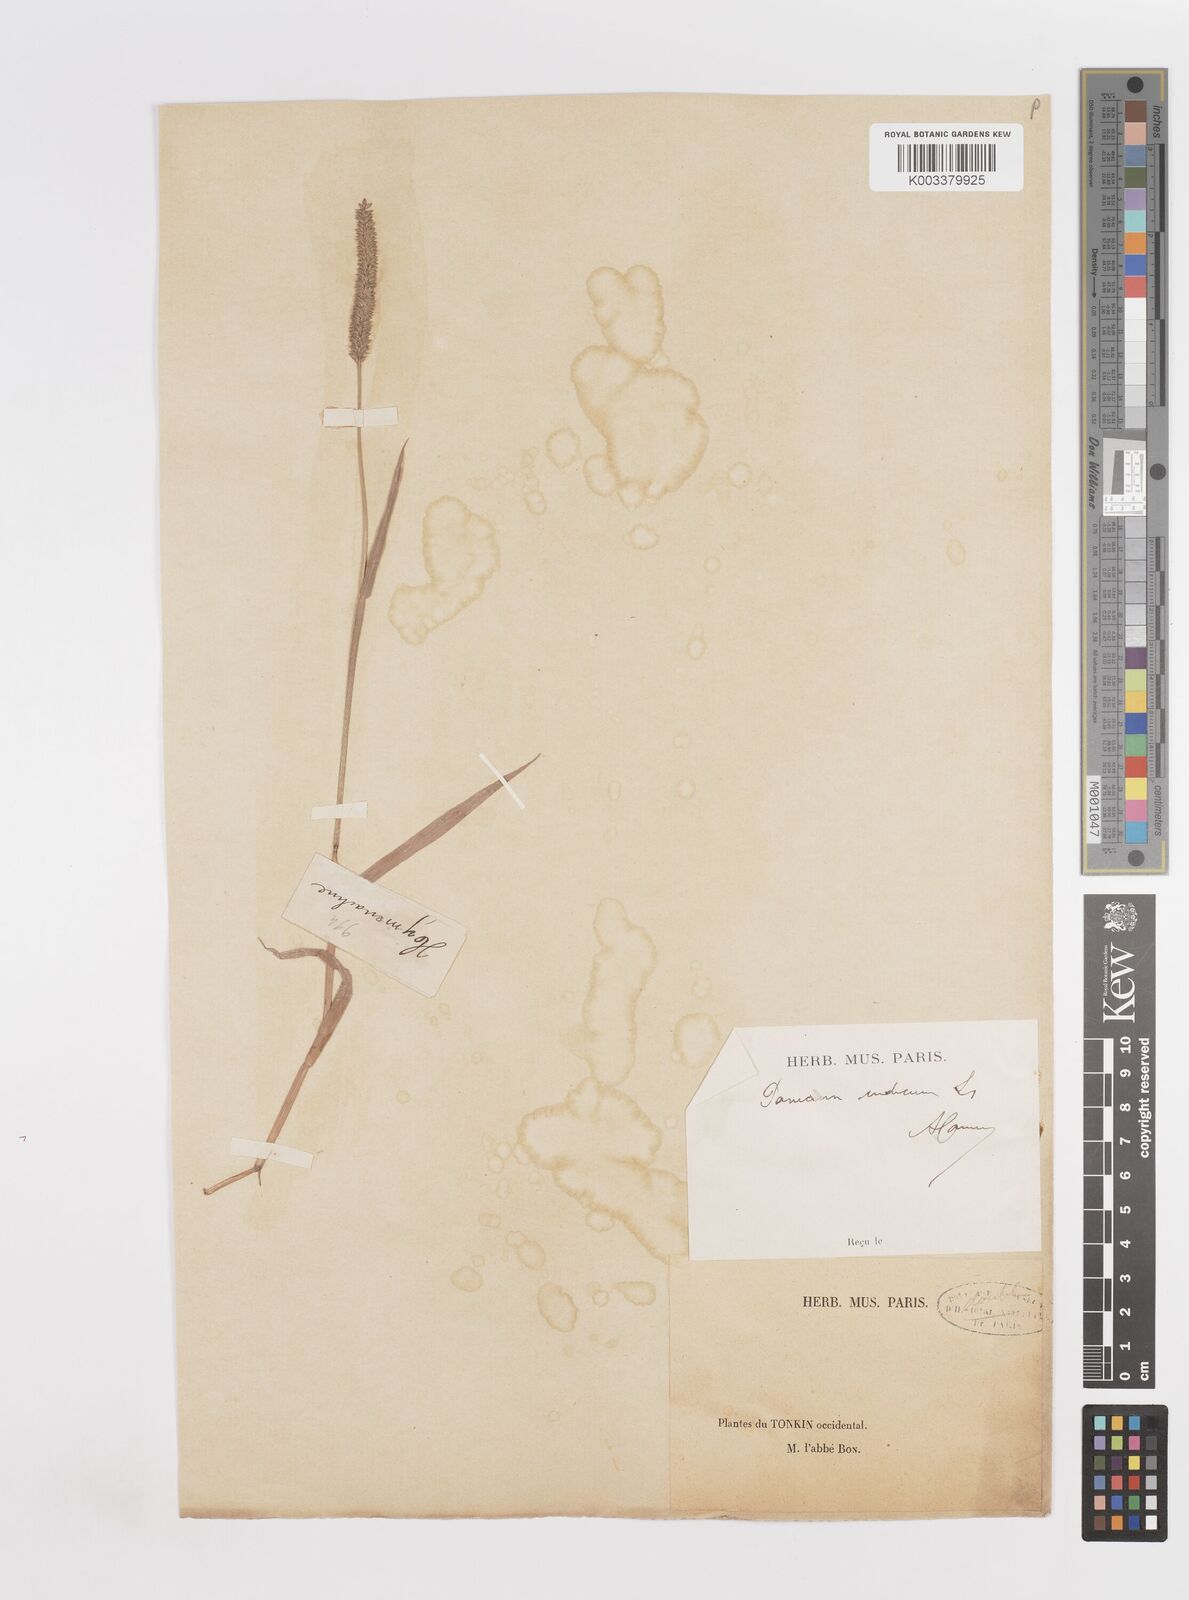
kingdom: Plantae
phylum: Tracheophyta
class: Liliopsida
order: Poales
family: Poaceae
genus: Sacciolepis
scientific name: Sacciolepis indica
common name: Glenwoodgrass
